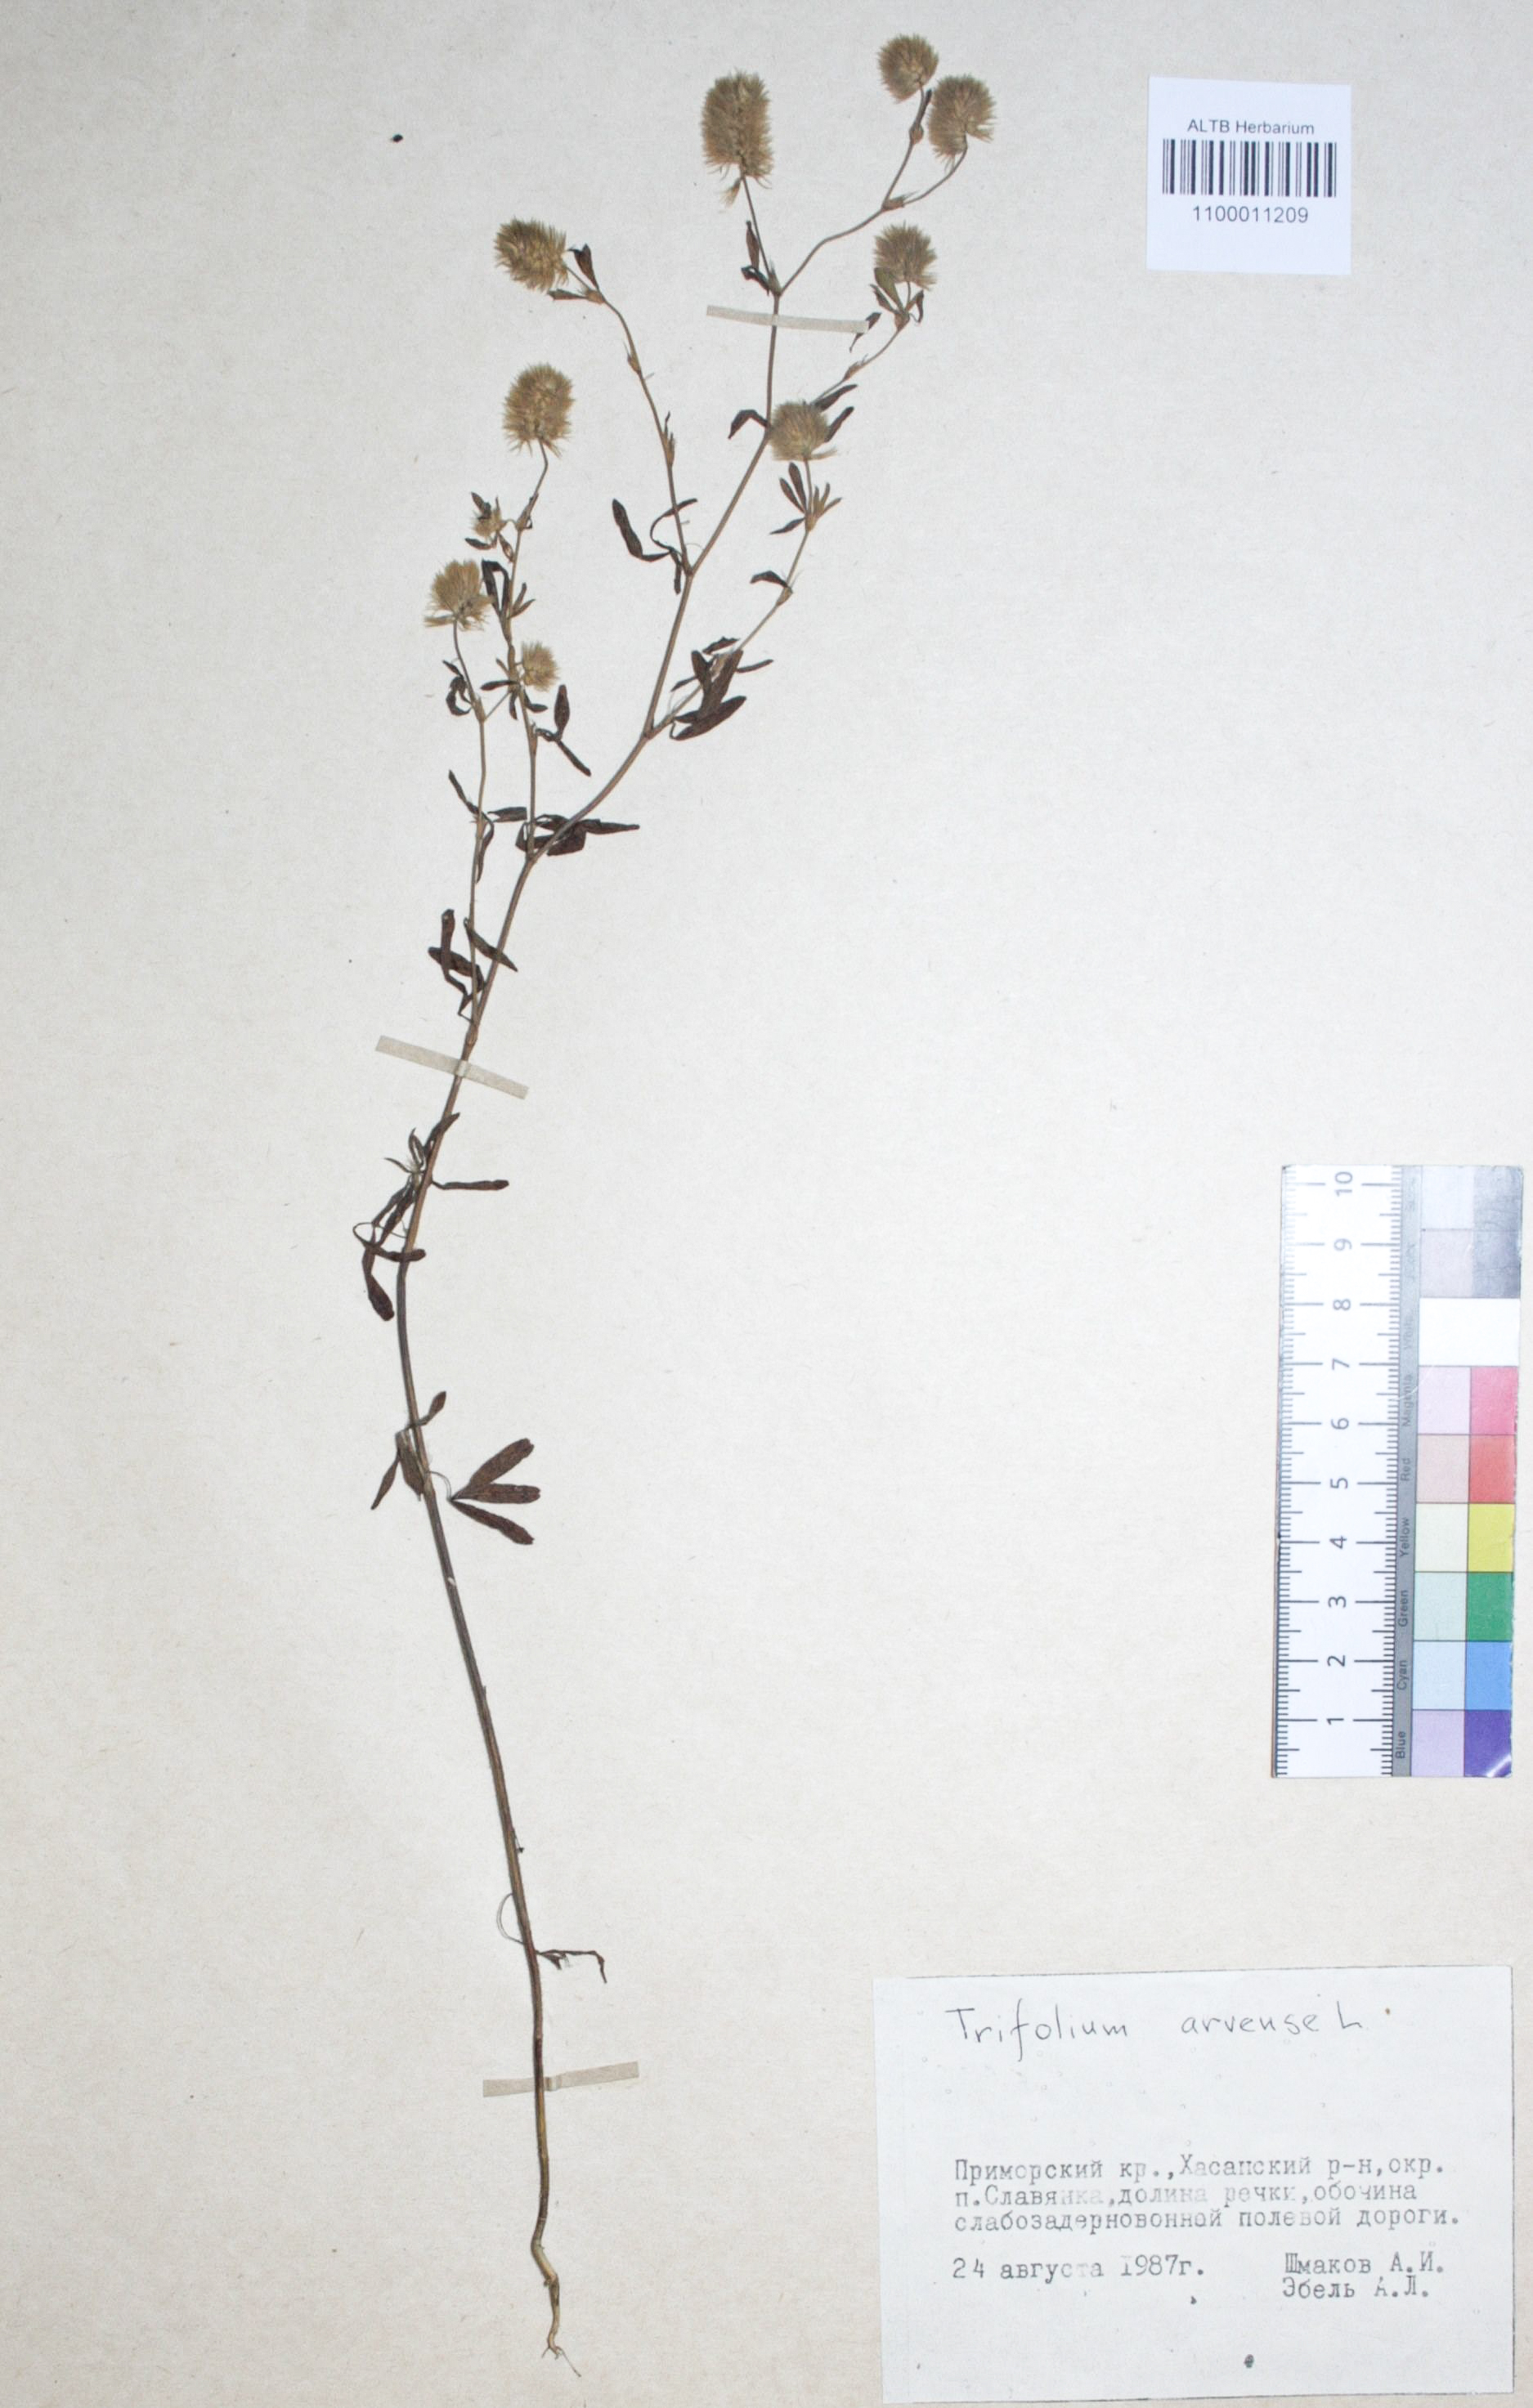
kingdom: Plantae
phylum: Tracheophyta
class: Magnoliopsida
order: Fabales
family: Fabaceae
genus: Trifolium
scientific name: Trifolium arvense
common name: Hare's-foot clover
